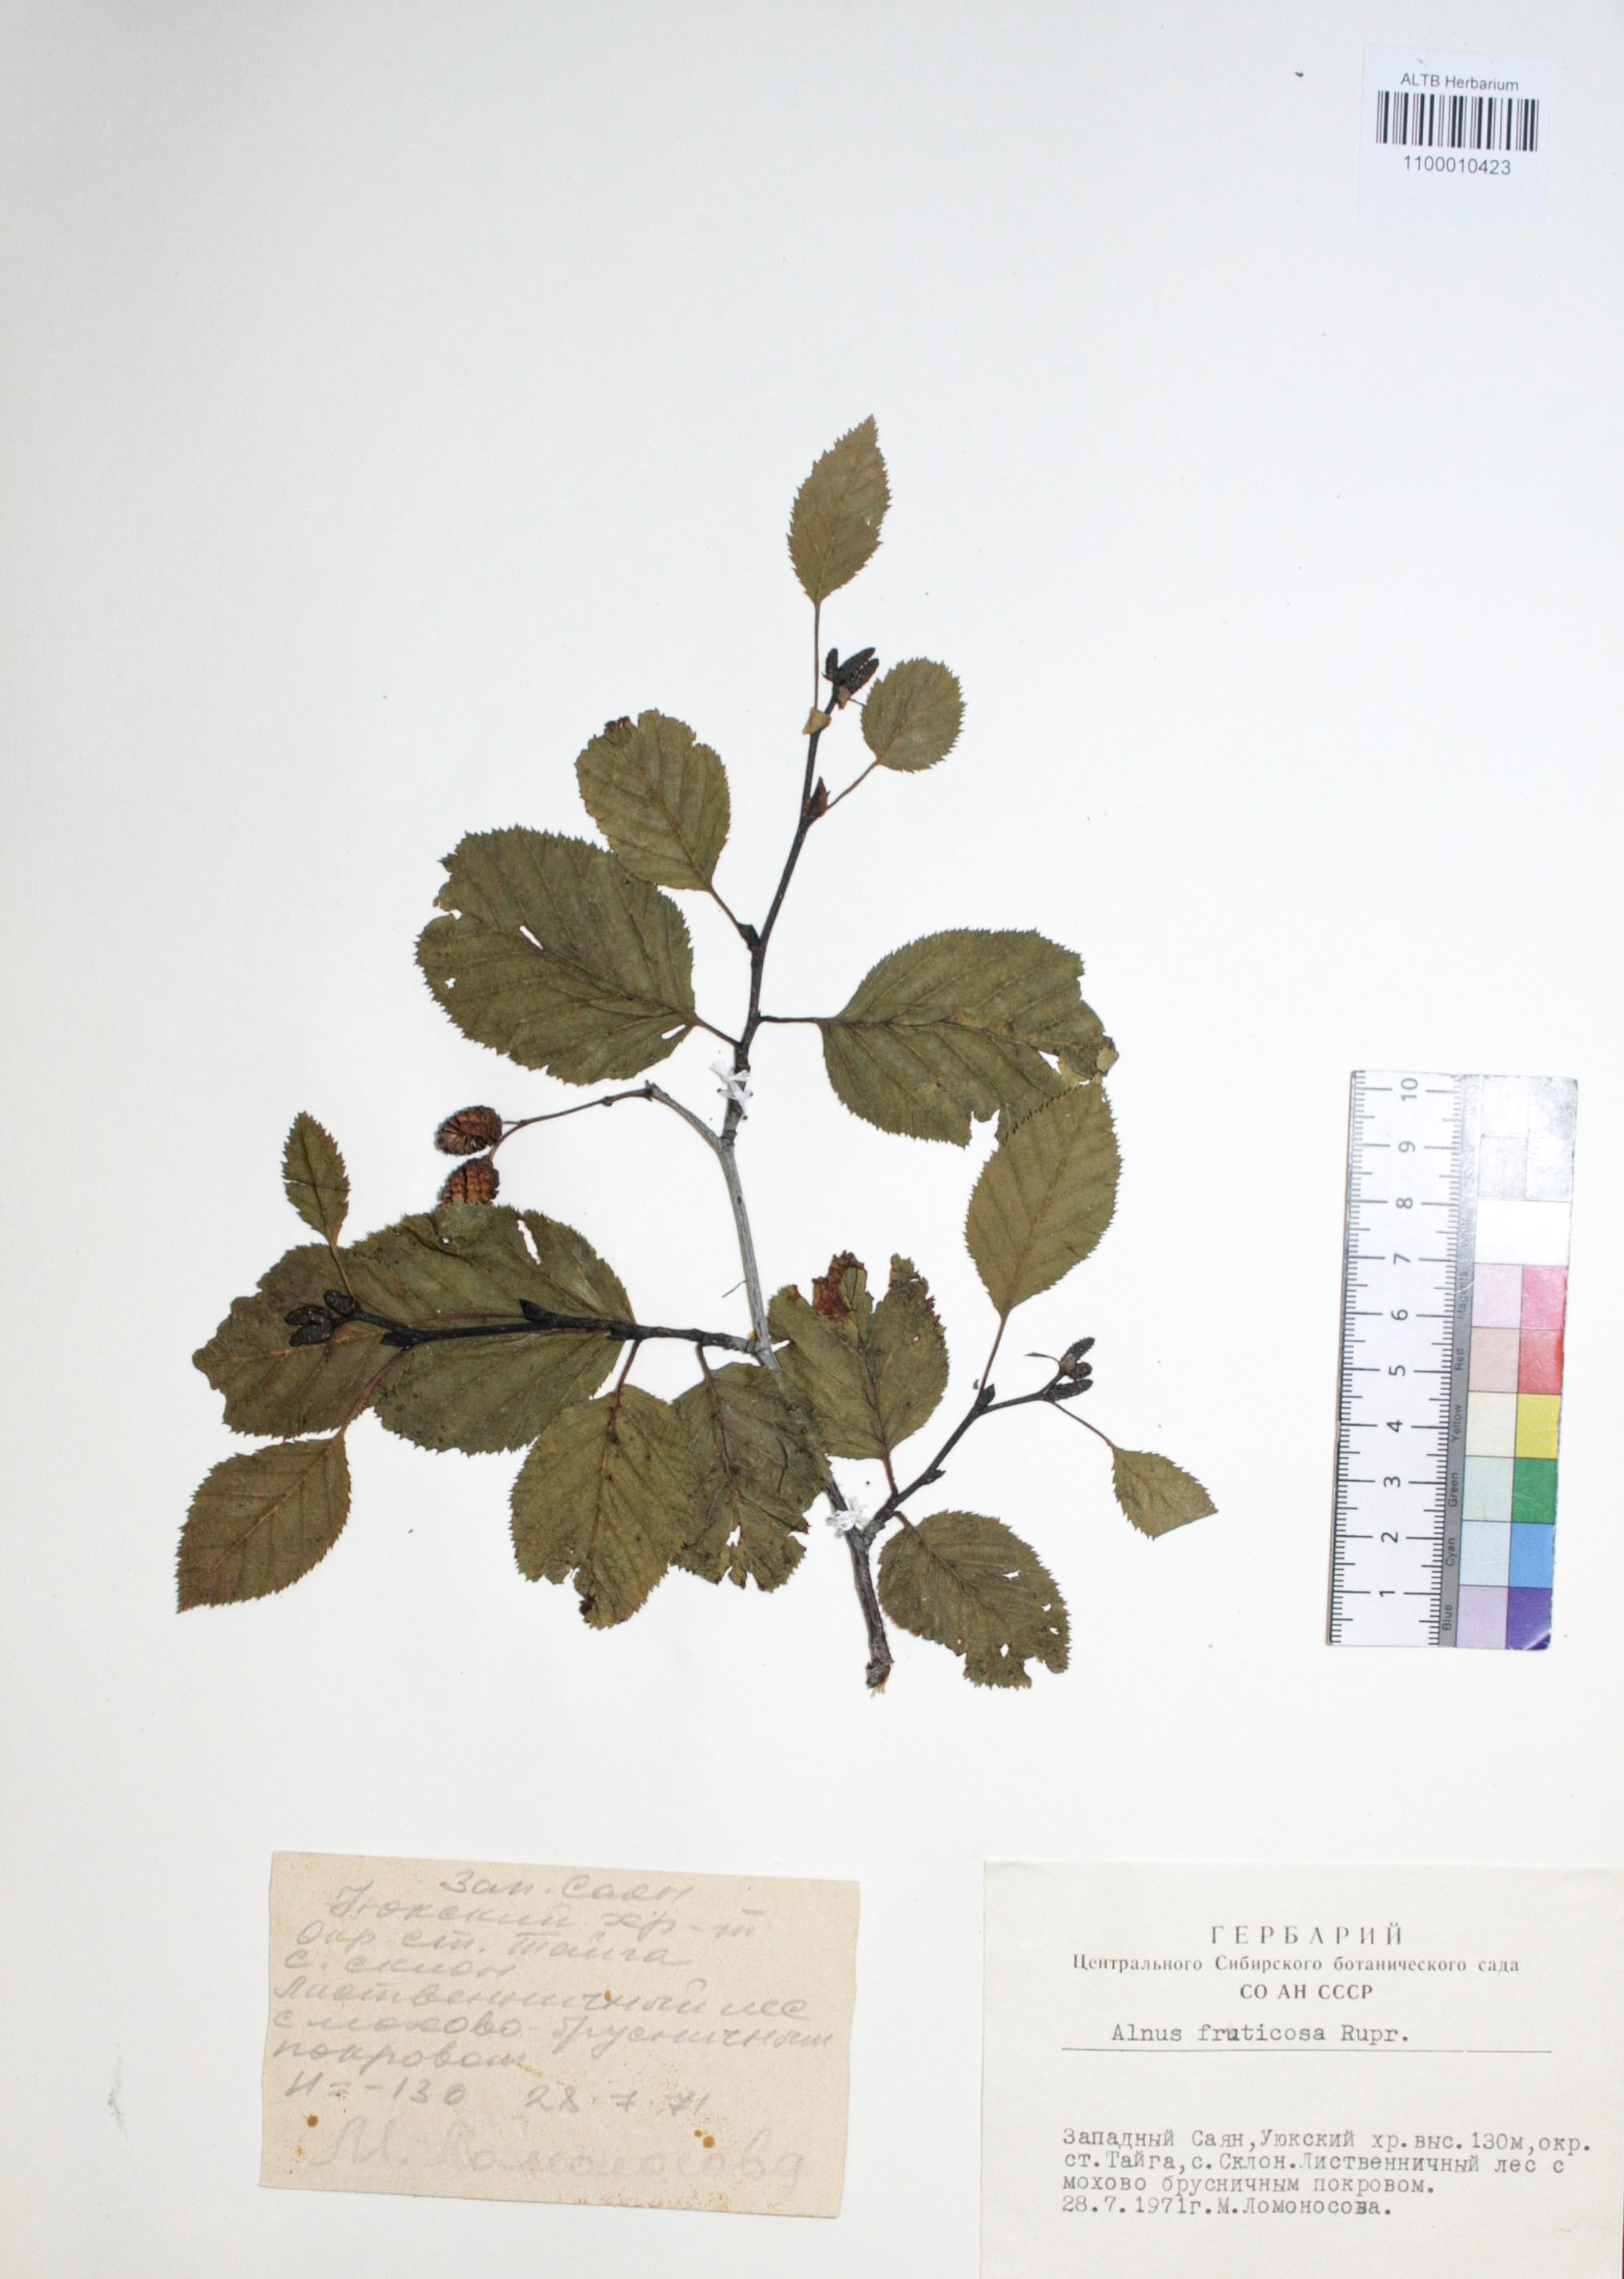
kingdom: Plantae
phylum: Tracheophyta
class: Magnoliopsida
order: Fagales
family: Betulaceae
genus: Alnus
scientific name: Alnus alnobetula
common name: Green alder
